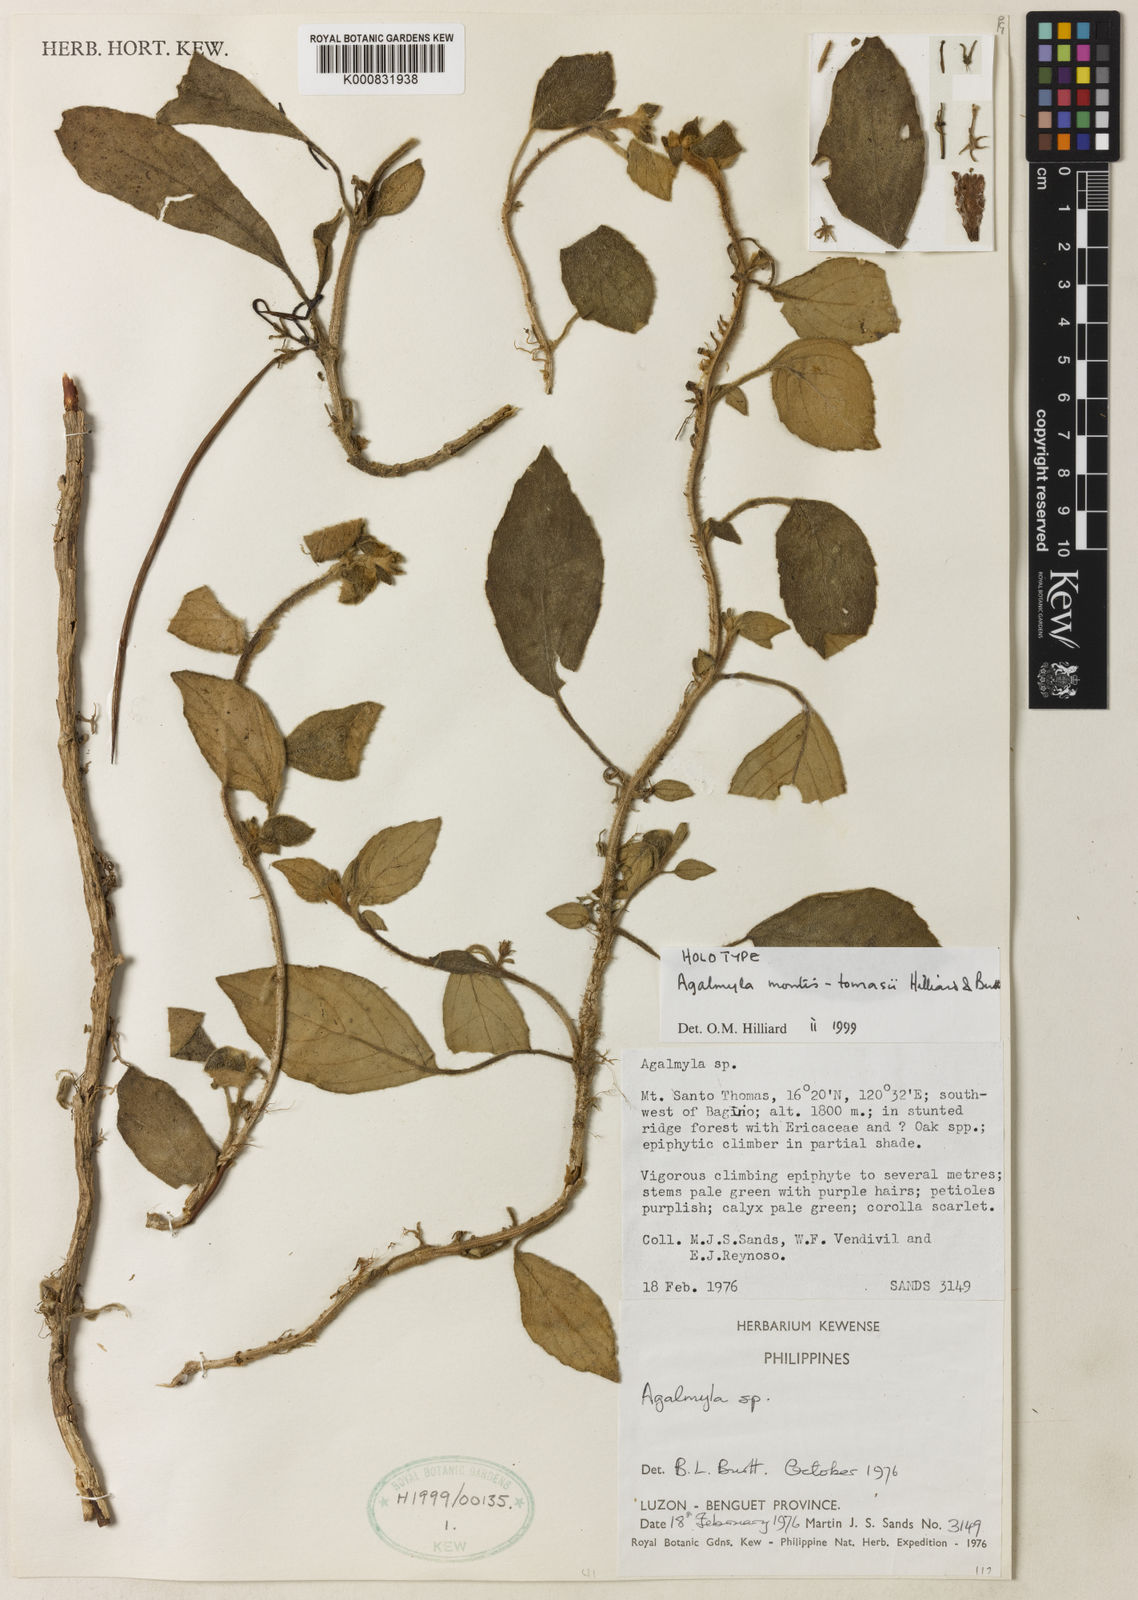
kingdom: Plantae
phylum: Tracheophyta
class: Magnoliopsida
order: Lamiales
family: Gesneriaceae
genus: Agalmyla
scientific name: Agalmyla montis-tomasii
